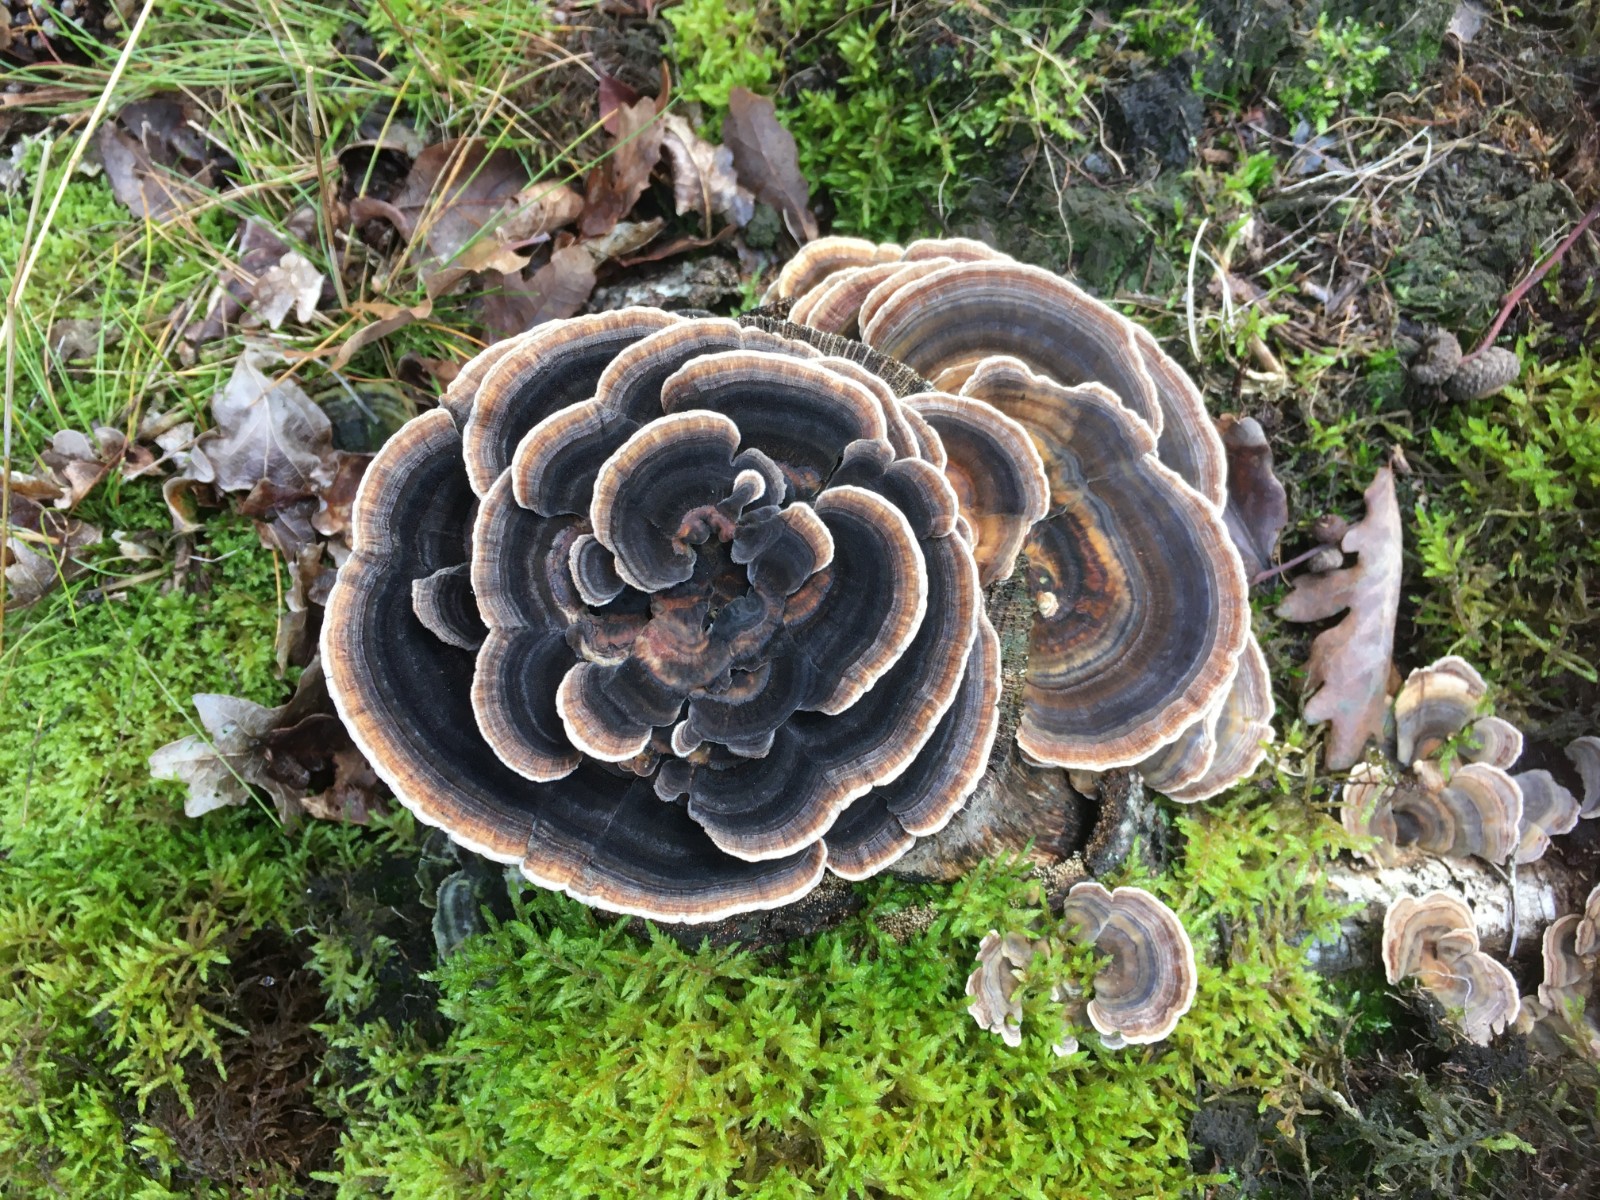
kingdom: Fungi
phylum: Basidiomycota
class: Agaricomycetes
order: Polyporales
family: Polyporaceae
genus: Trametes
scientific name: Trametes versicolor
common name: broget læderporesvamp
